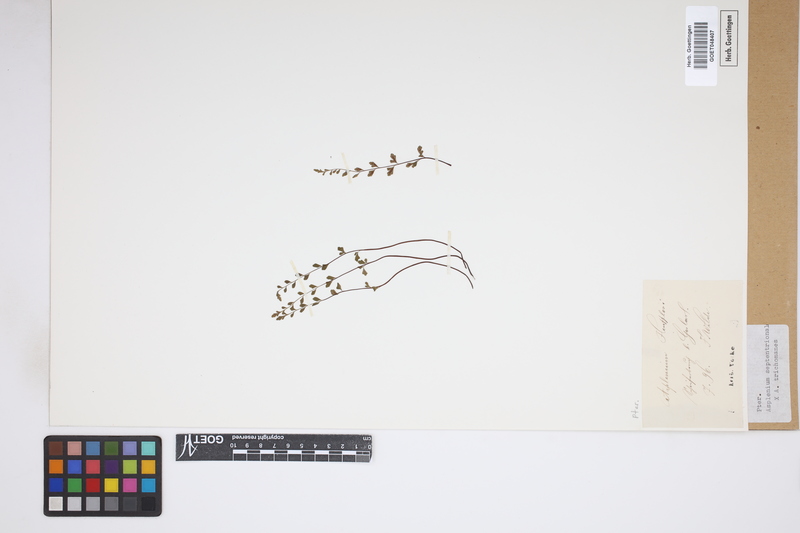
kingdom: Plantae
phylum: Tracheophyta
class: Polypodiopsida
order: Polypodiales
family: Aspleniaceae
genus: Asplenium
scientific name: Asplenium
